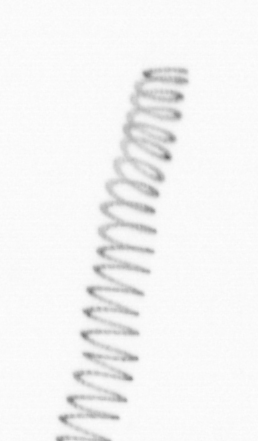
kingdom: Chromista
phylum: Ochrophyta
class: Bacillariophyceae
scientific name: Bacillariophyceae
